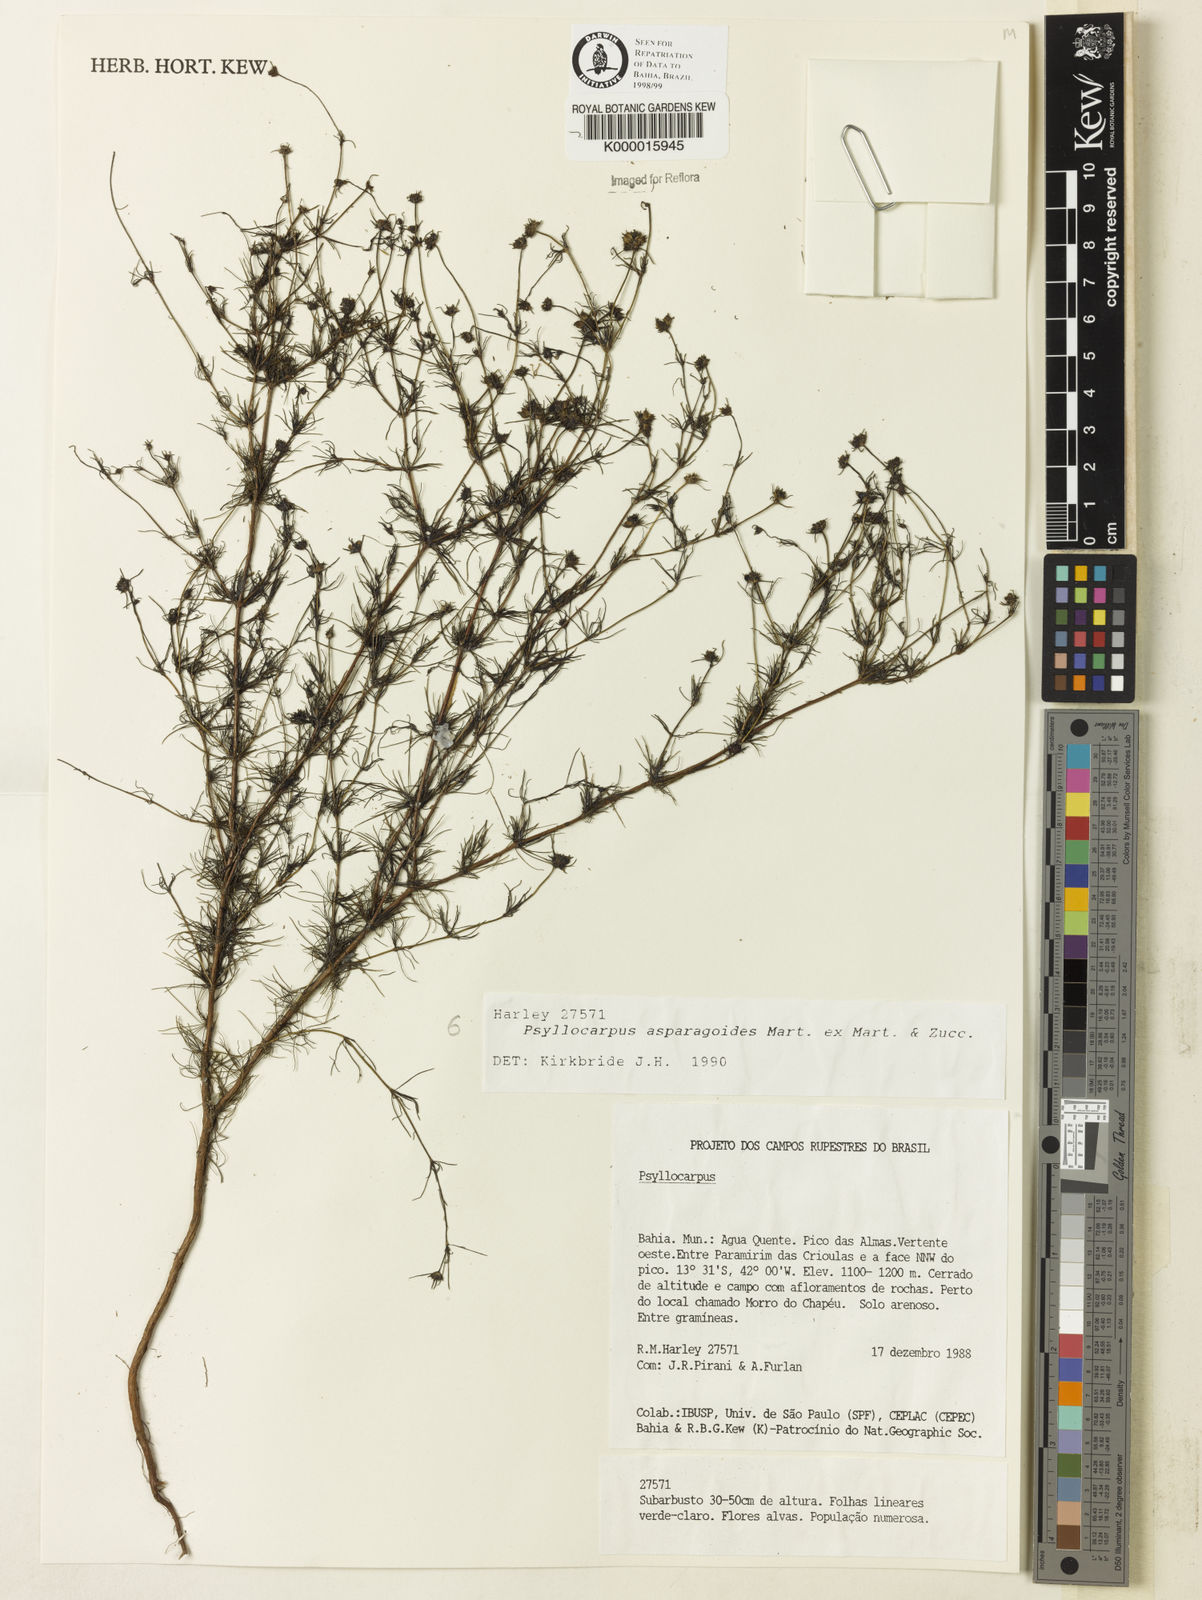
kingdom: Plantae
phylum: Tracheophyta
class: Magnoliopsida
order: Gentianales
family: Rubiaceae
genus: Psyllocarpus
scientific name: Psyllocarpus asparagoides
